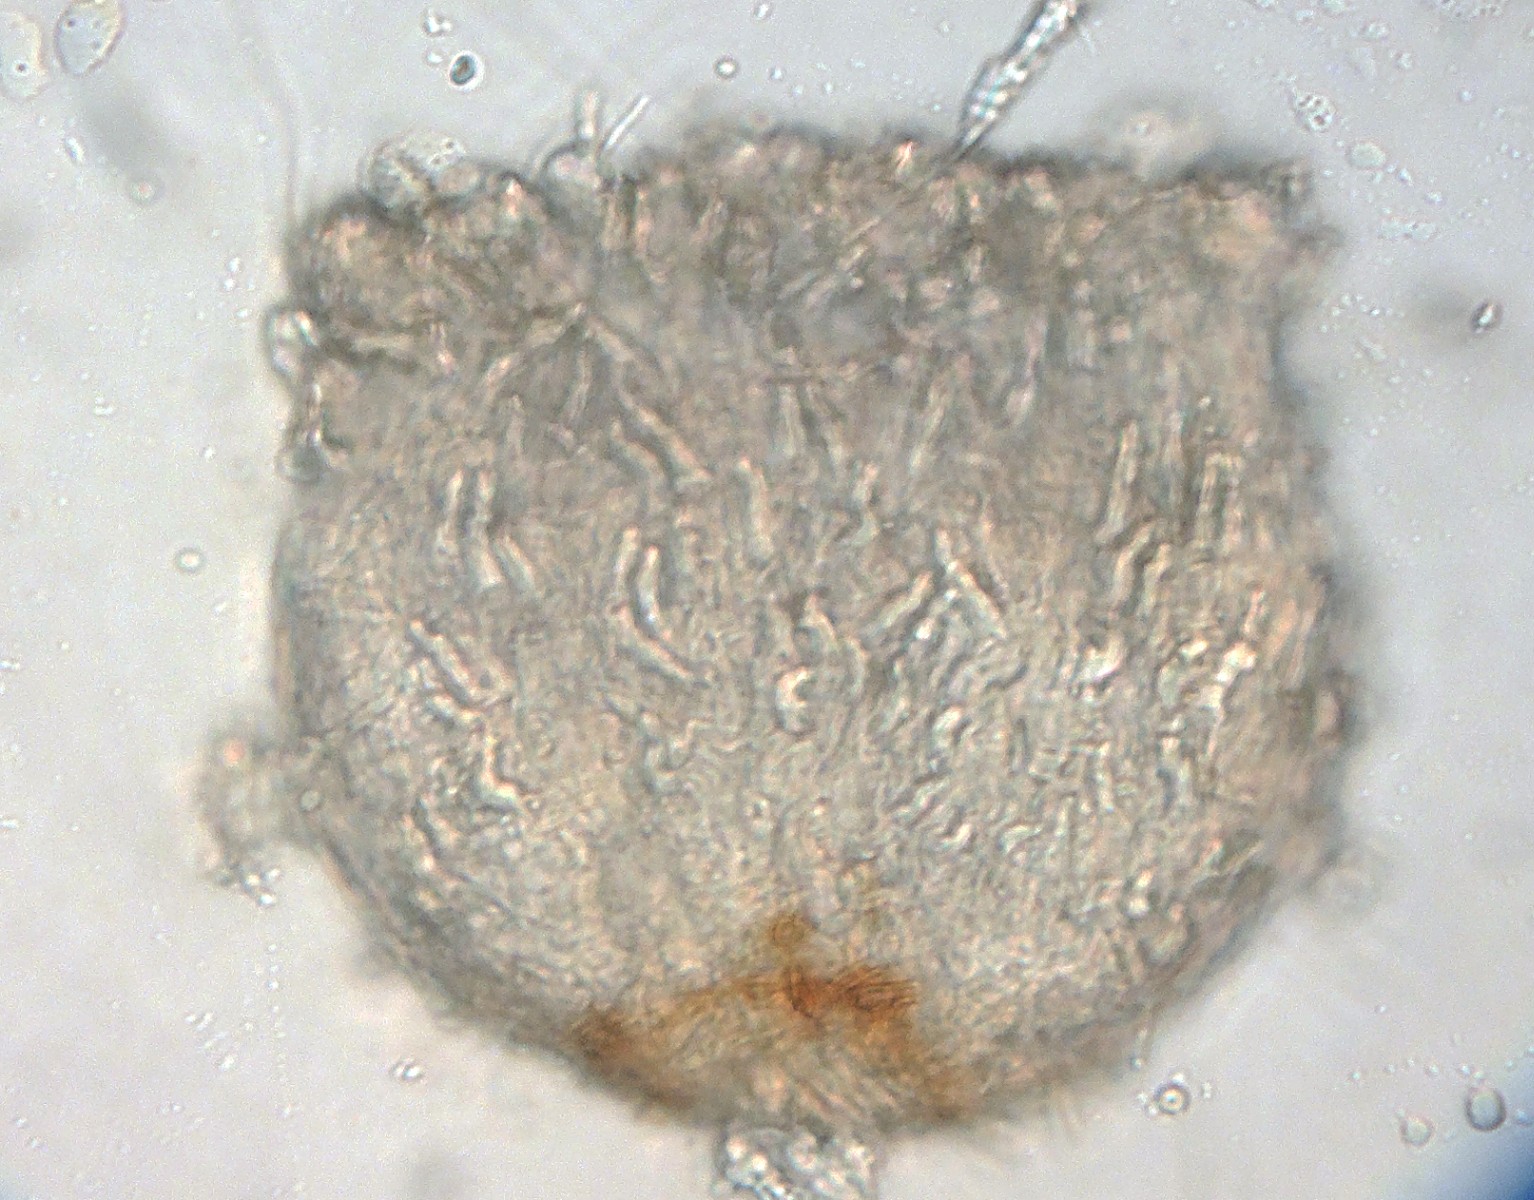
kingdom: Fungi
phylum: Ascomycota
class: Leotiomycetes
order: Helotiales
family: Hyaloscyphaceae
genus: Unguicularia
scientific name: Unguicularia costata
